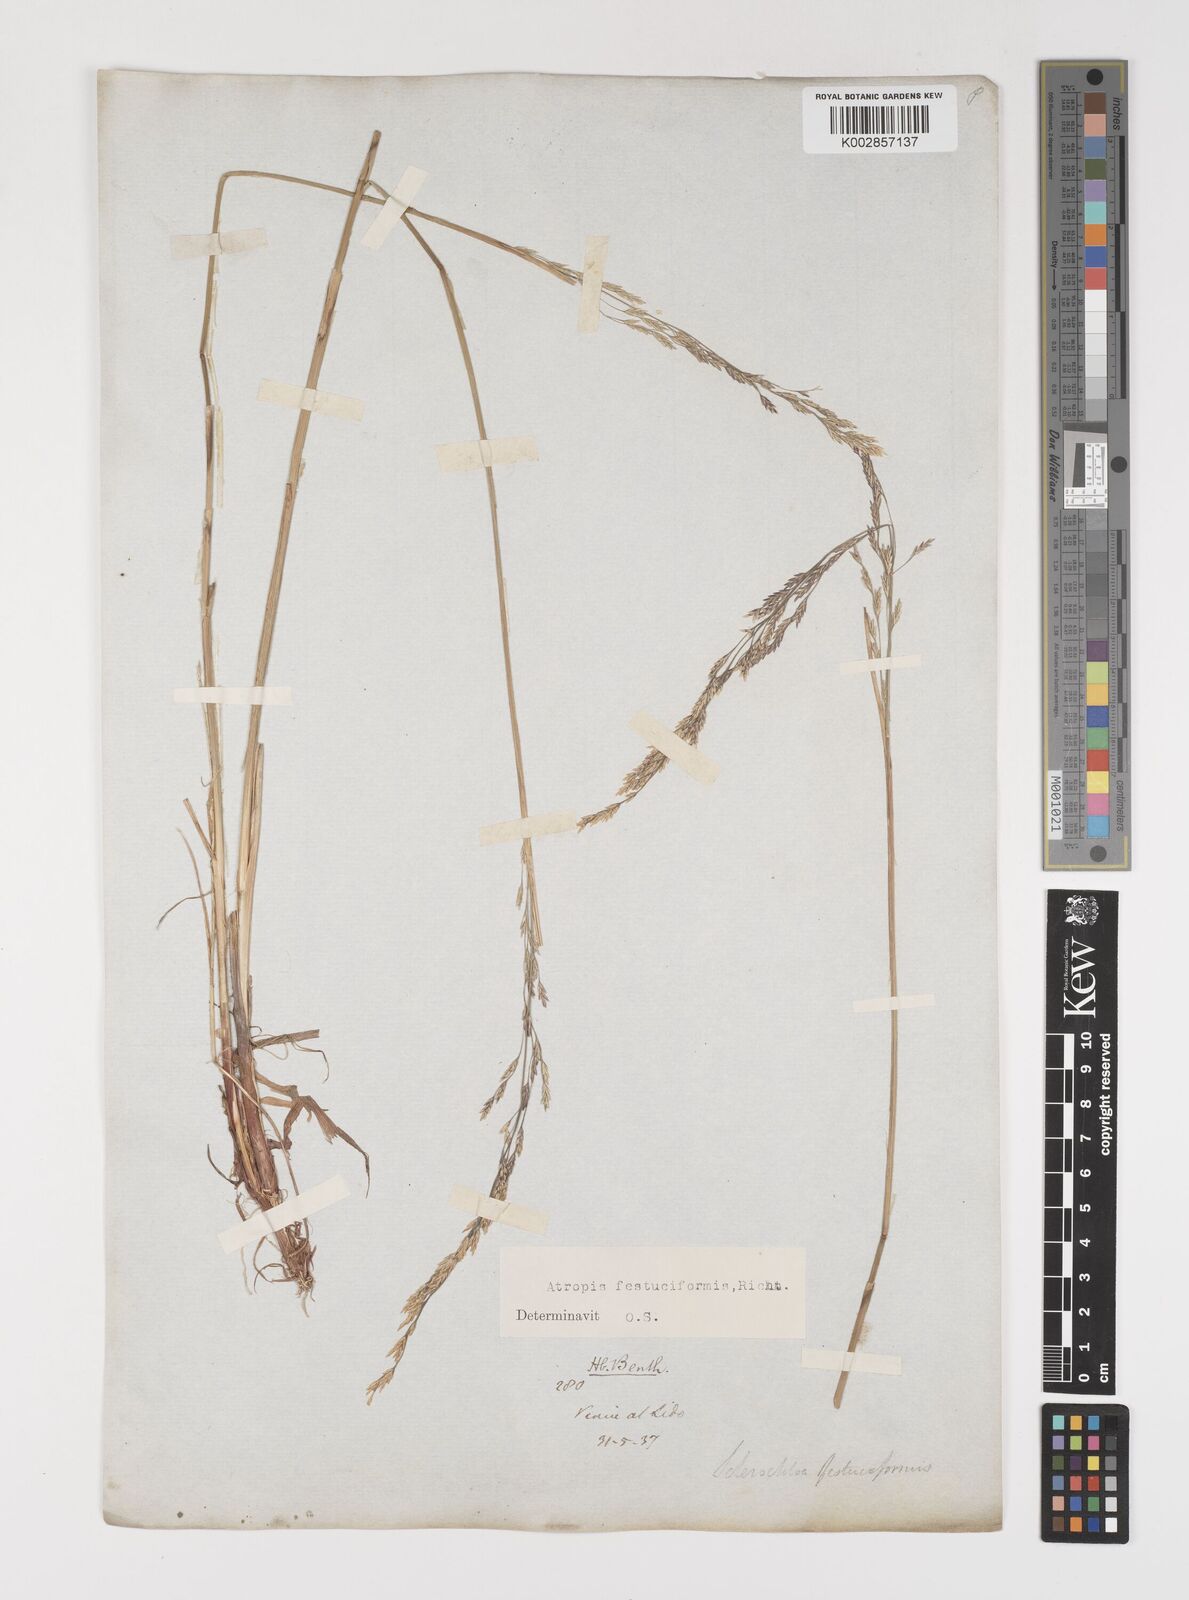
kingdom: Plantae
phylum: Tracheophyta
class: Liliopsida
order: Poales
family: Poaceae
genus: Puccinellia
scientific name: Puccinellia festuciformis
